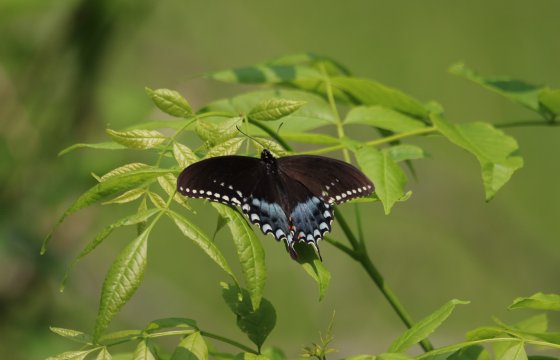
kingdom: Animalia
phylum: Arthropoda
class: Insecta
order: Lepidoptera
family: Papilionidae
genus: Pterourus
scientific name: Pterourus troilus
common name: Spicebush Swallowtail
